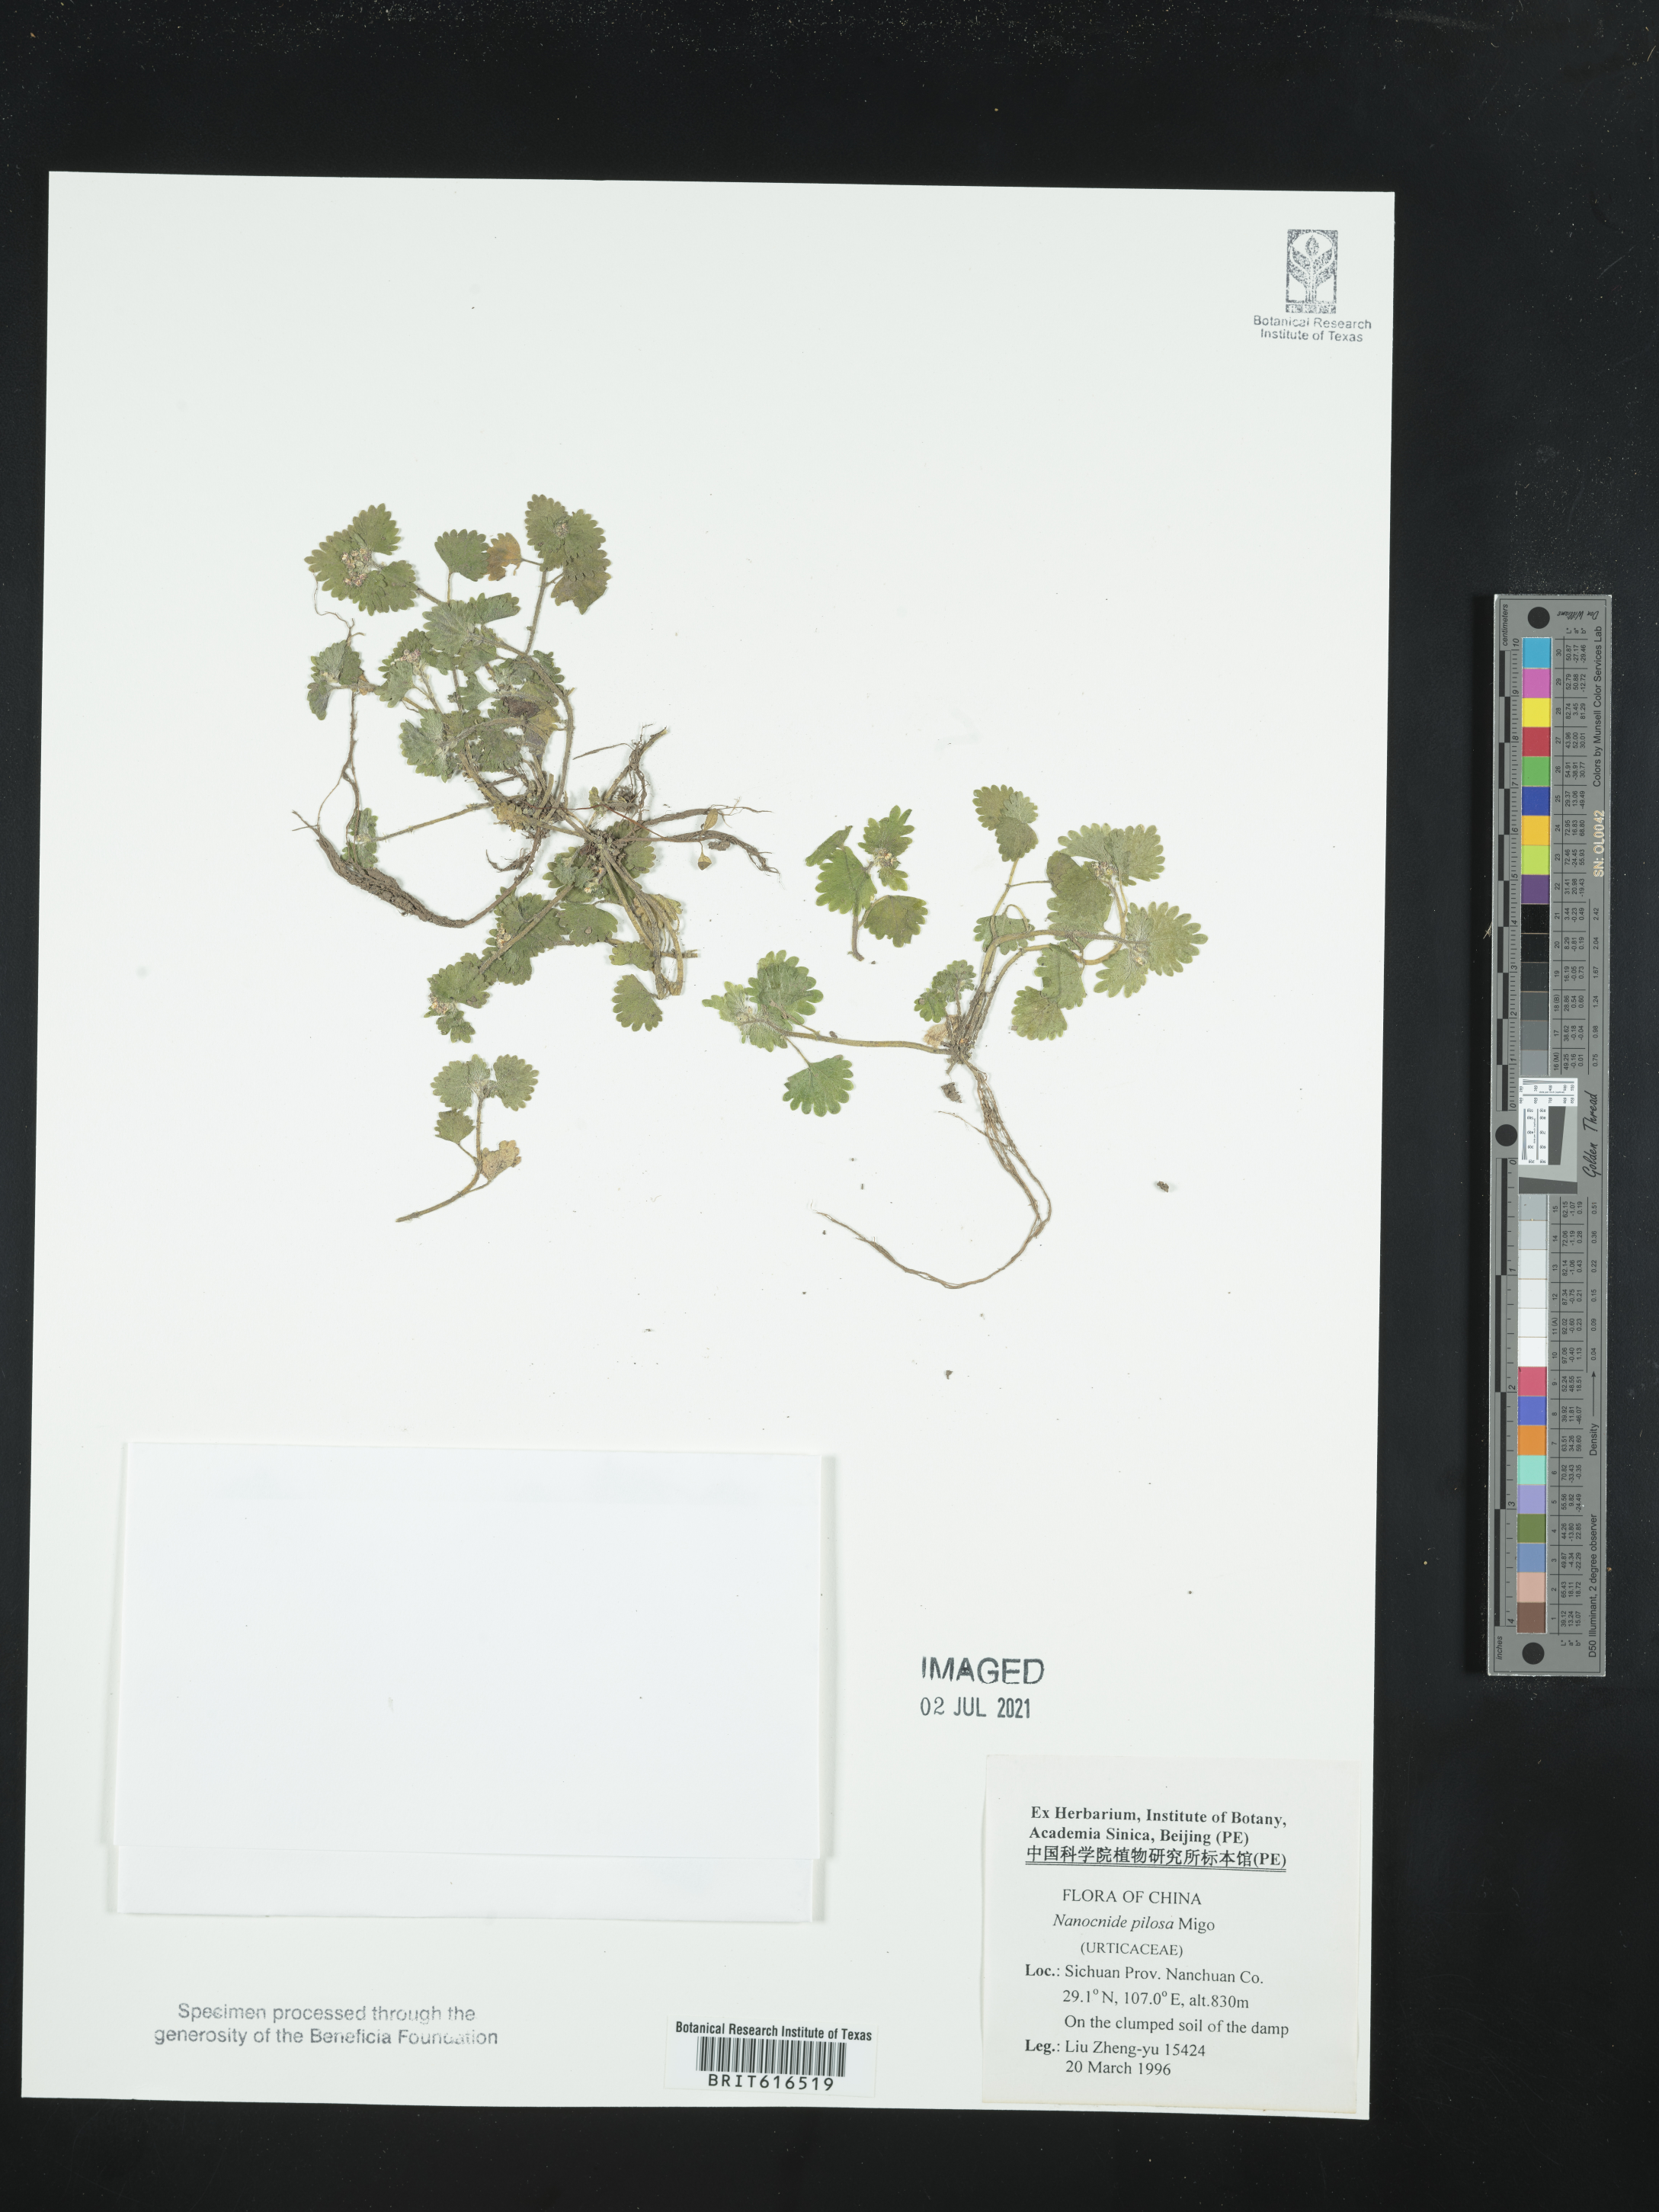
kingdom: Plantae
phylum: Tracheophyta
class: Magnoliopsida
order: Rosales
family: Urticaceae
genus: Nanocnide
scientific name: Nanocnide lobata
